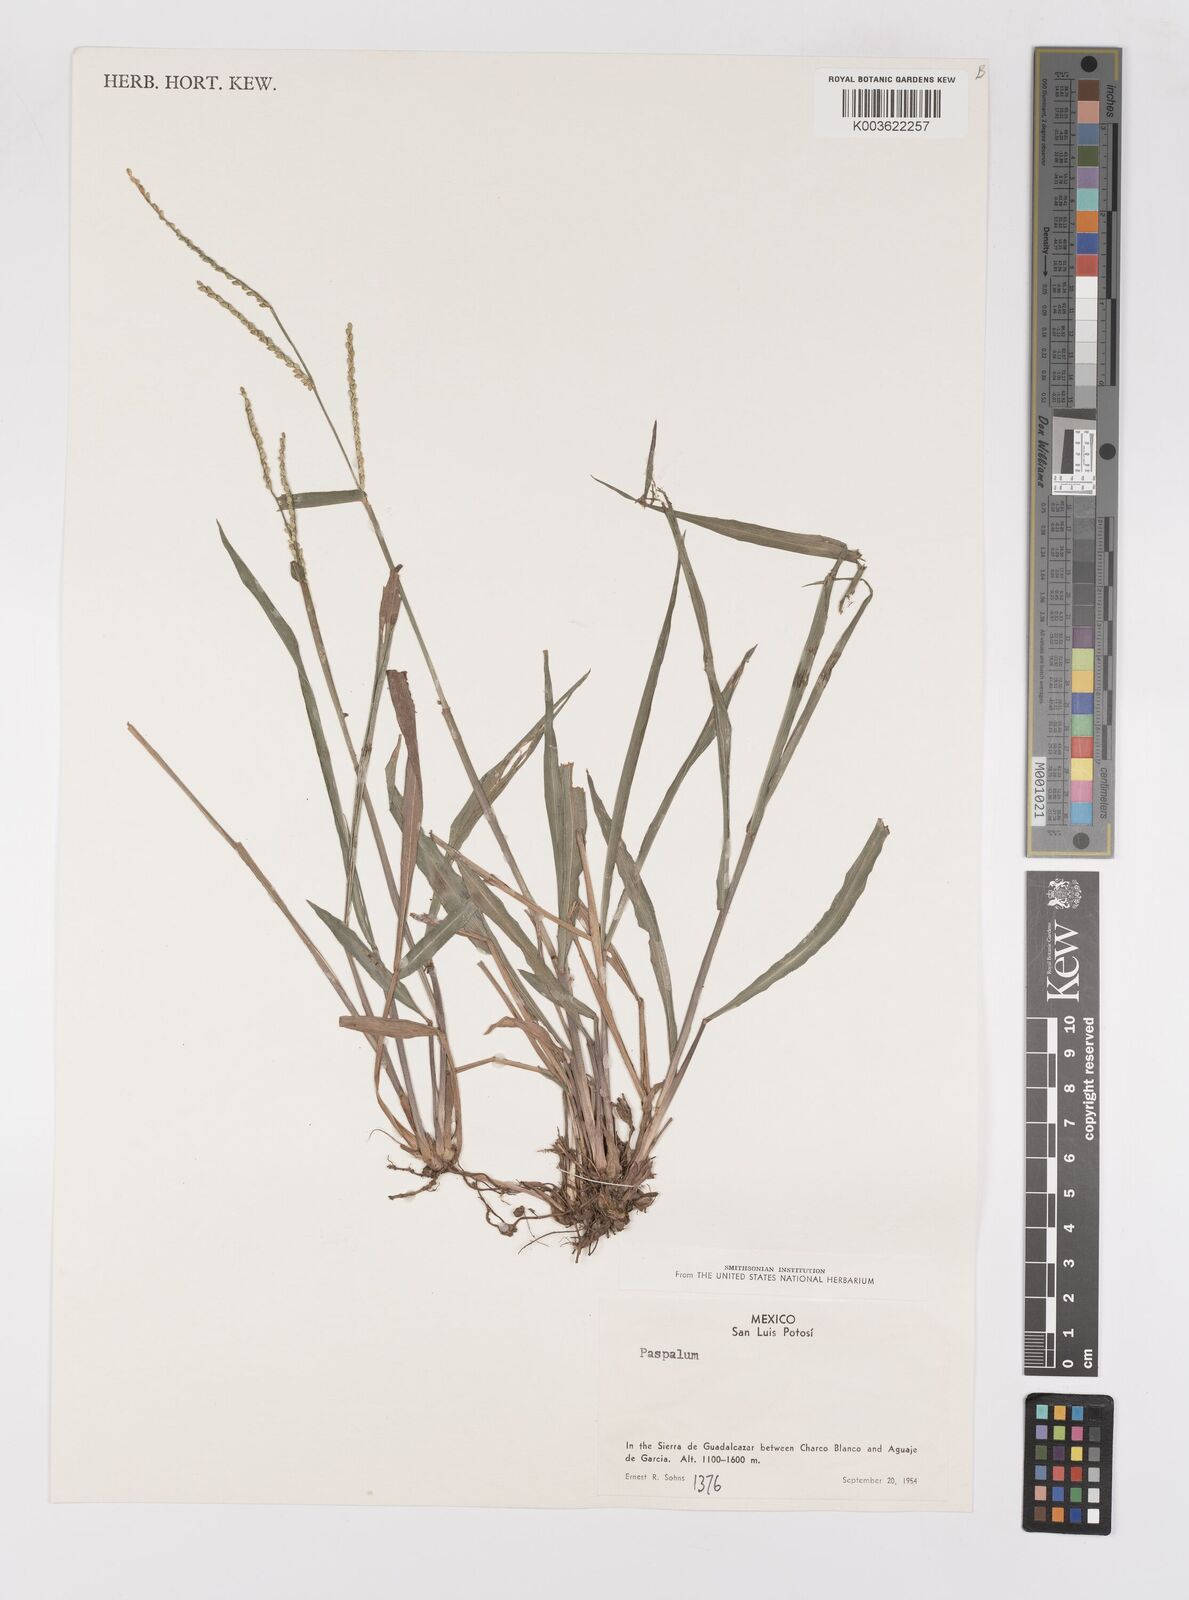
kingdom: Plantae
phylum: Tracheophyta
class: Liliopsida
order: Poales
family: Poaceae
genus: Paspalum
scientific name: Paspalum
